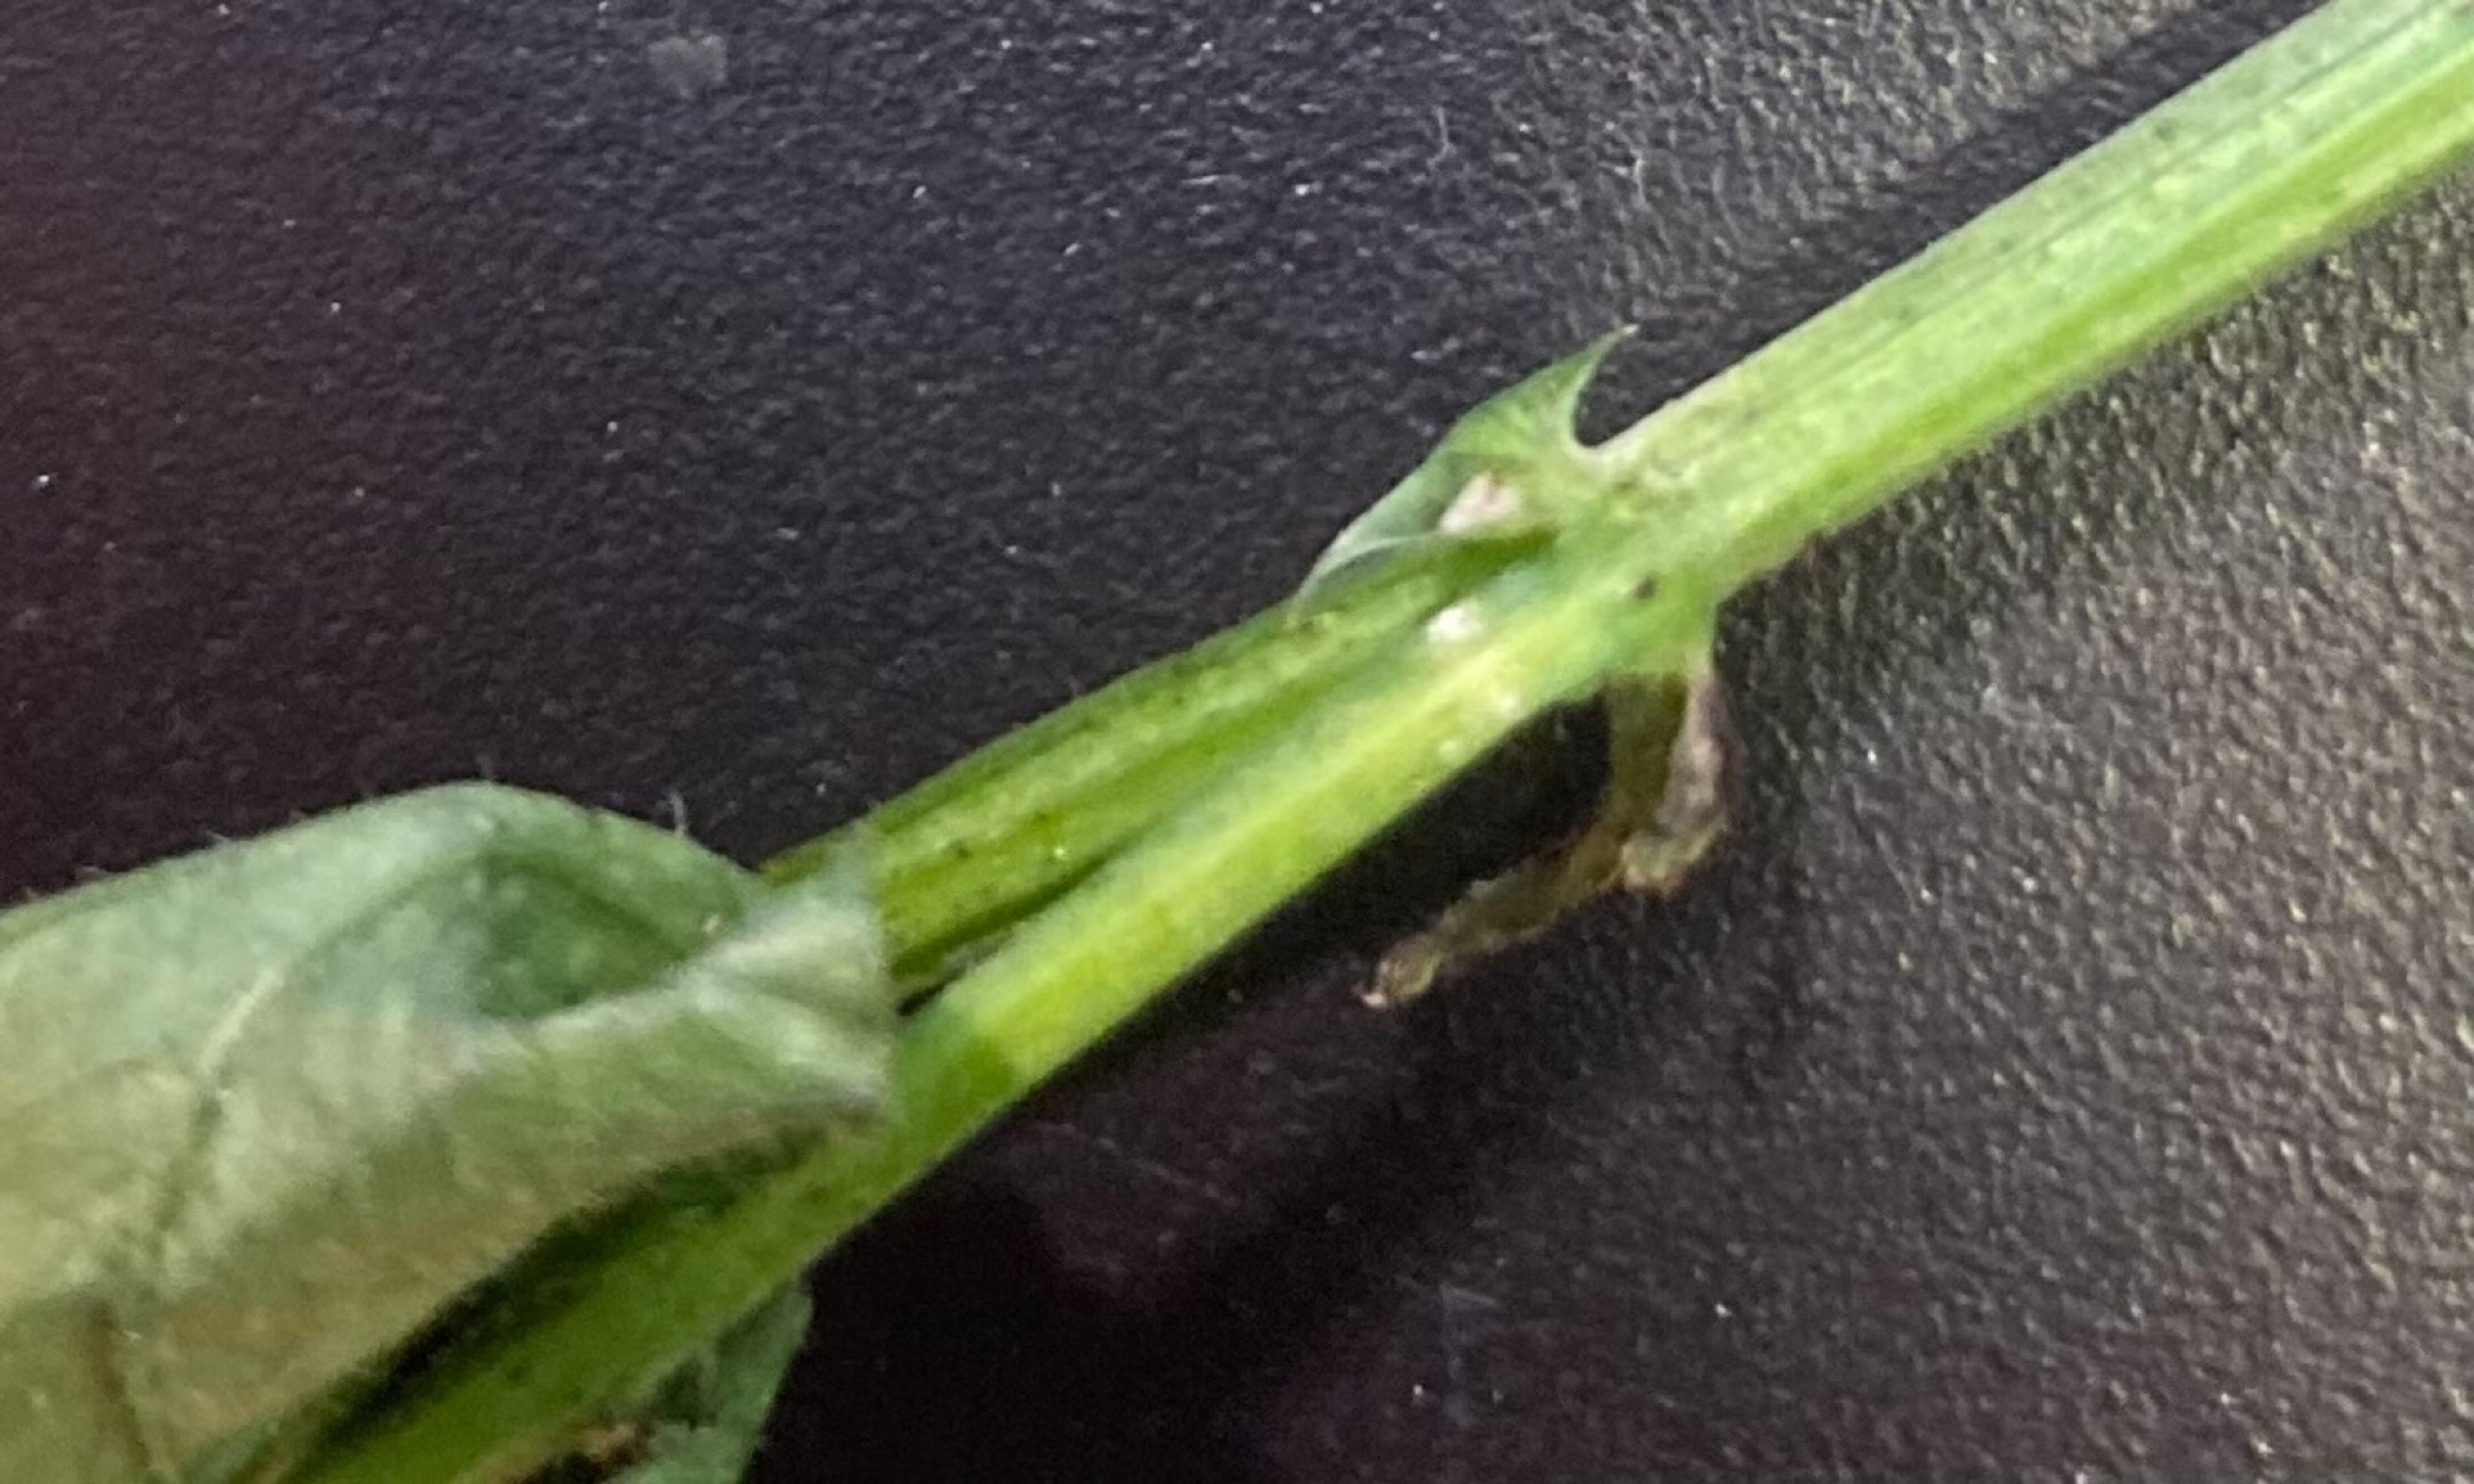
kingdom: Plantae
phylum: Tracheophyta
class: Magnoliopsida
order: Fabales
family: Fabaceae
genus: Vicia
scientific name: Vicia sepium
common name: Gærde-vikke
